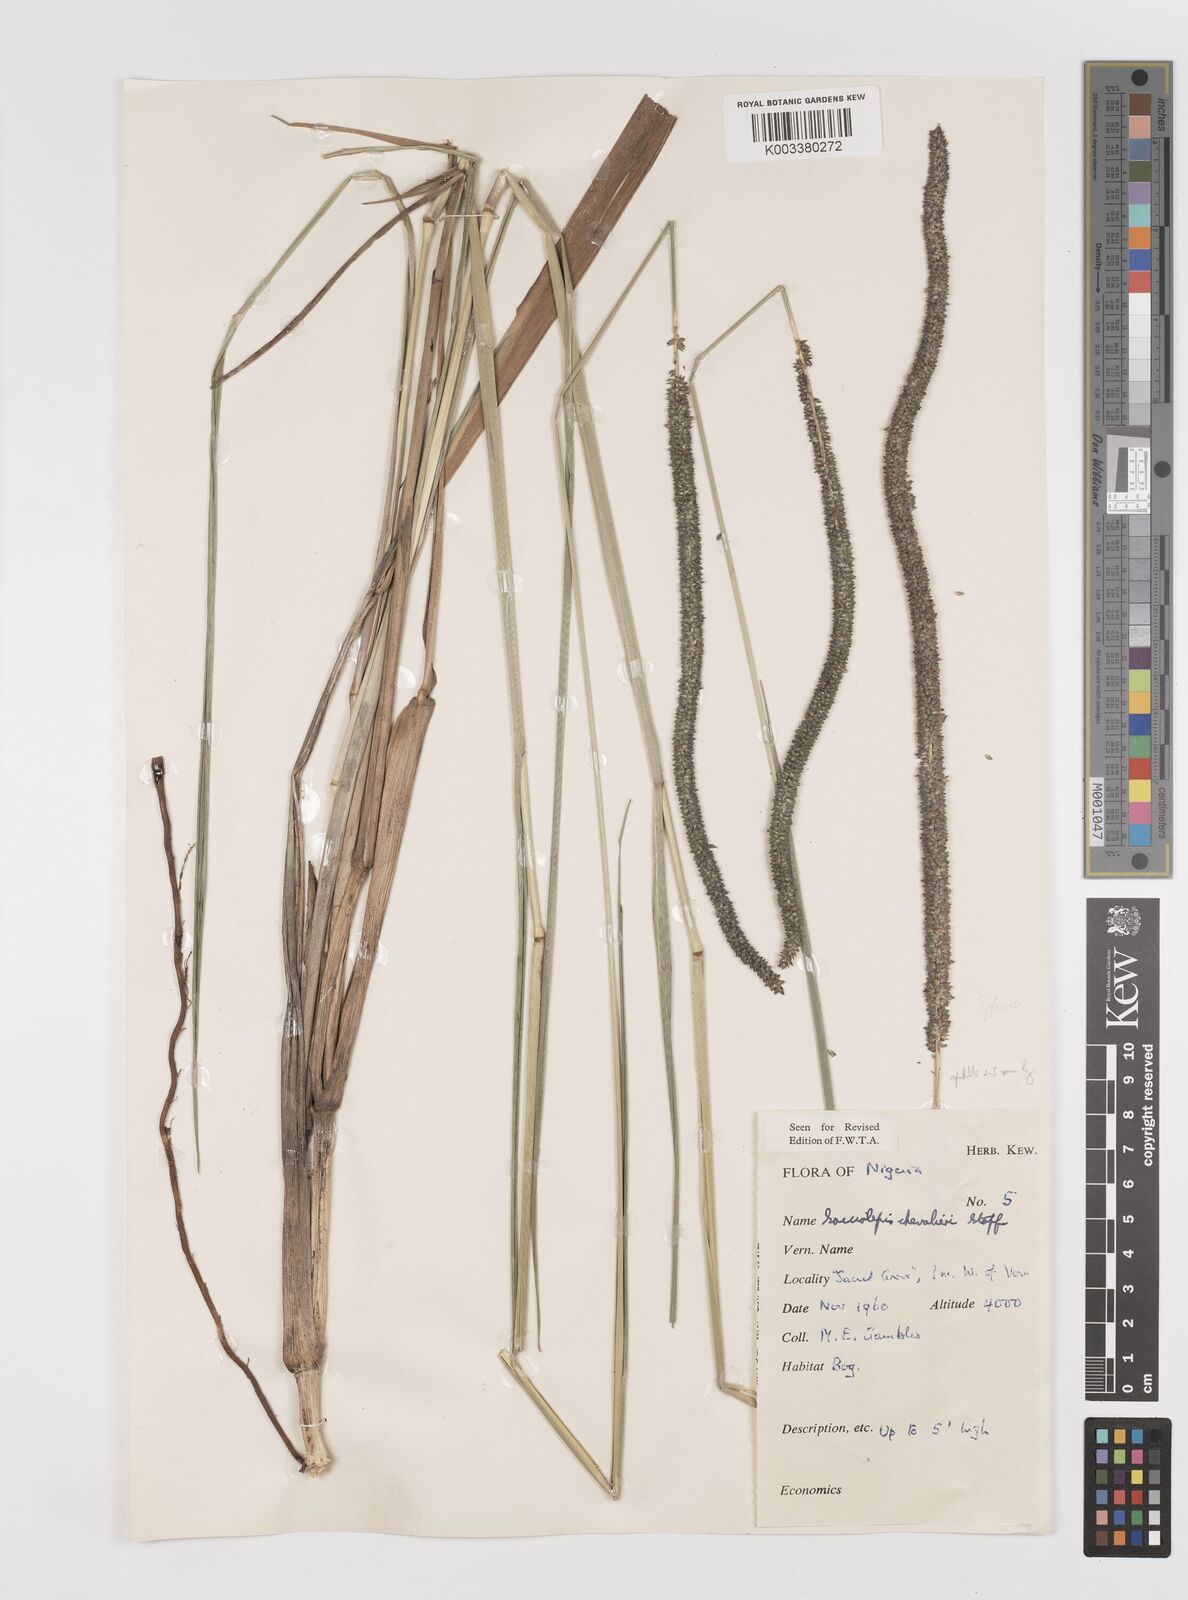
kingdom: Plantae
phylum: Tracheophyta
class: Liliopsida
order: Poales
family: Poaceae
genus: Sacciolepis
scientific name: Sacciolepis typhura
